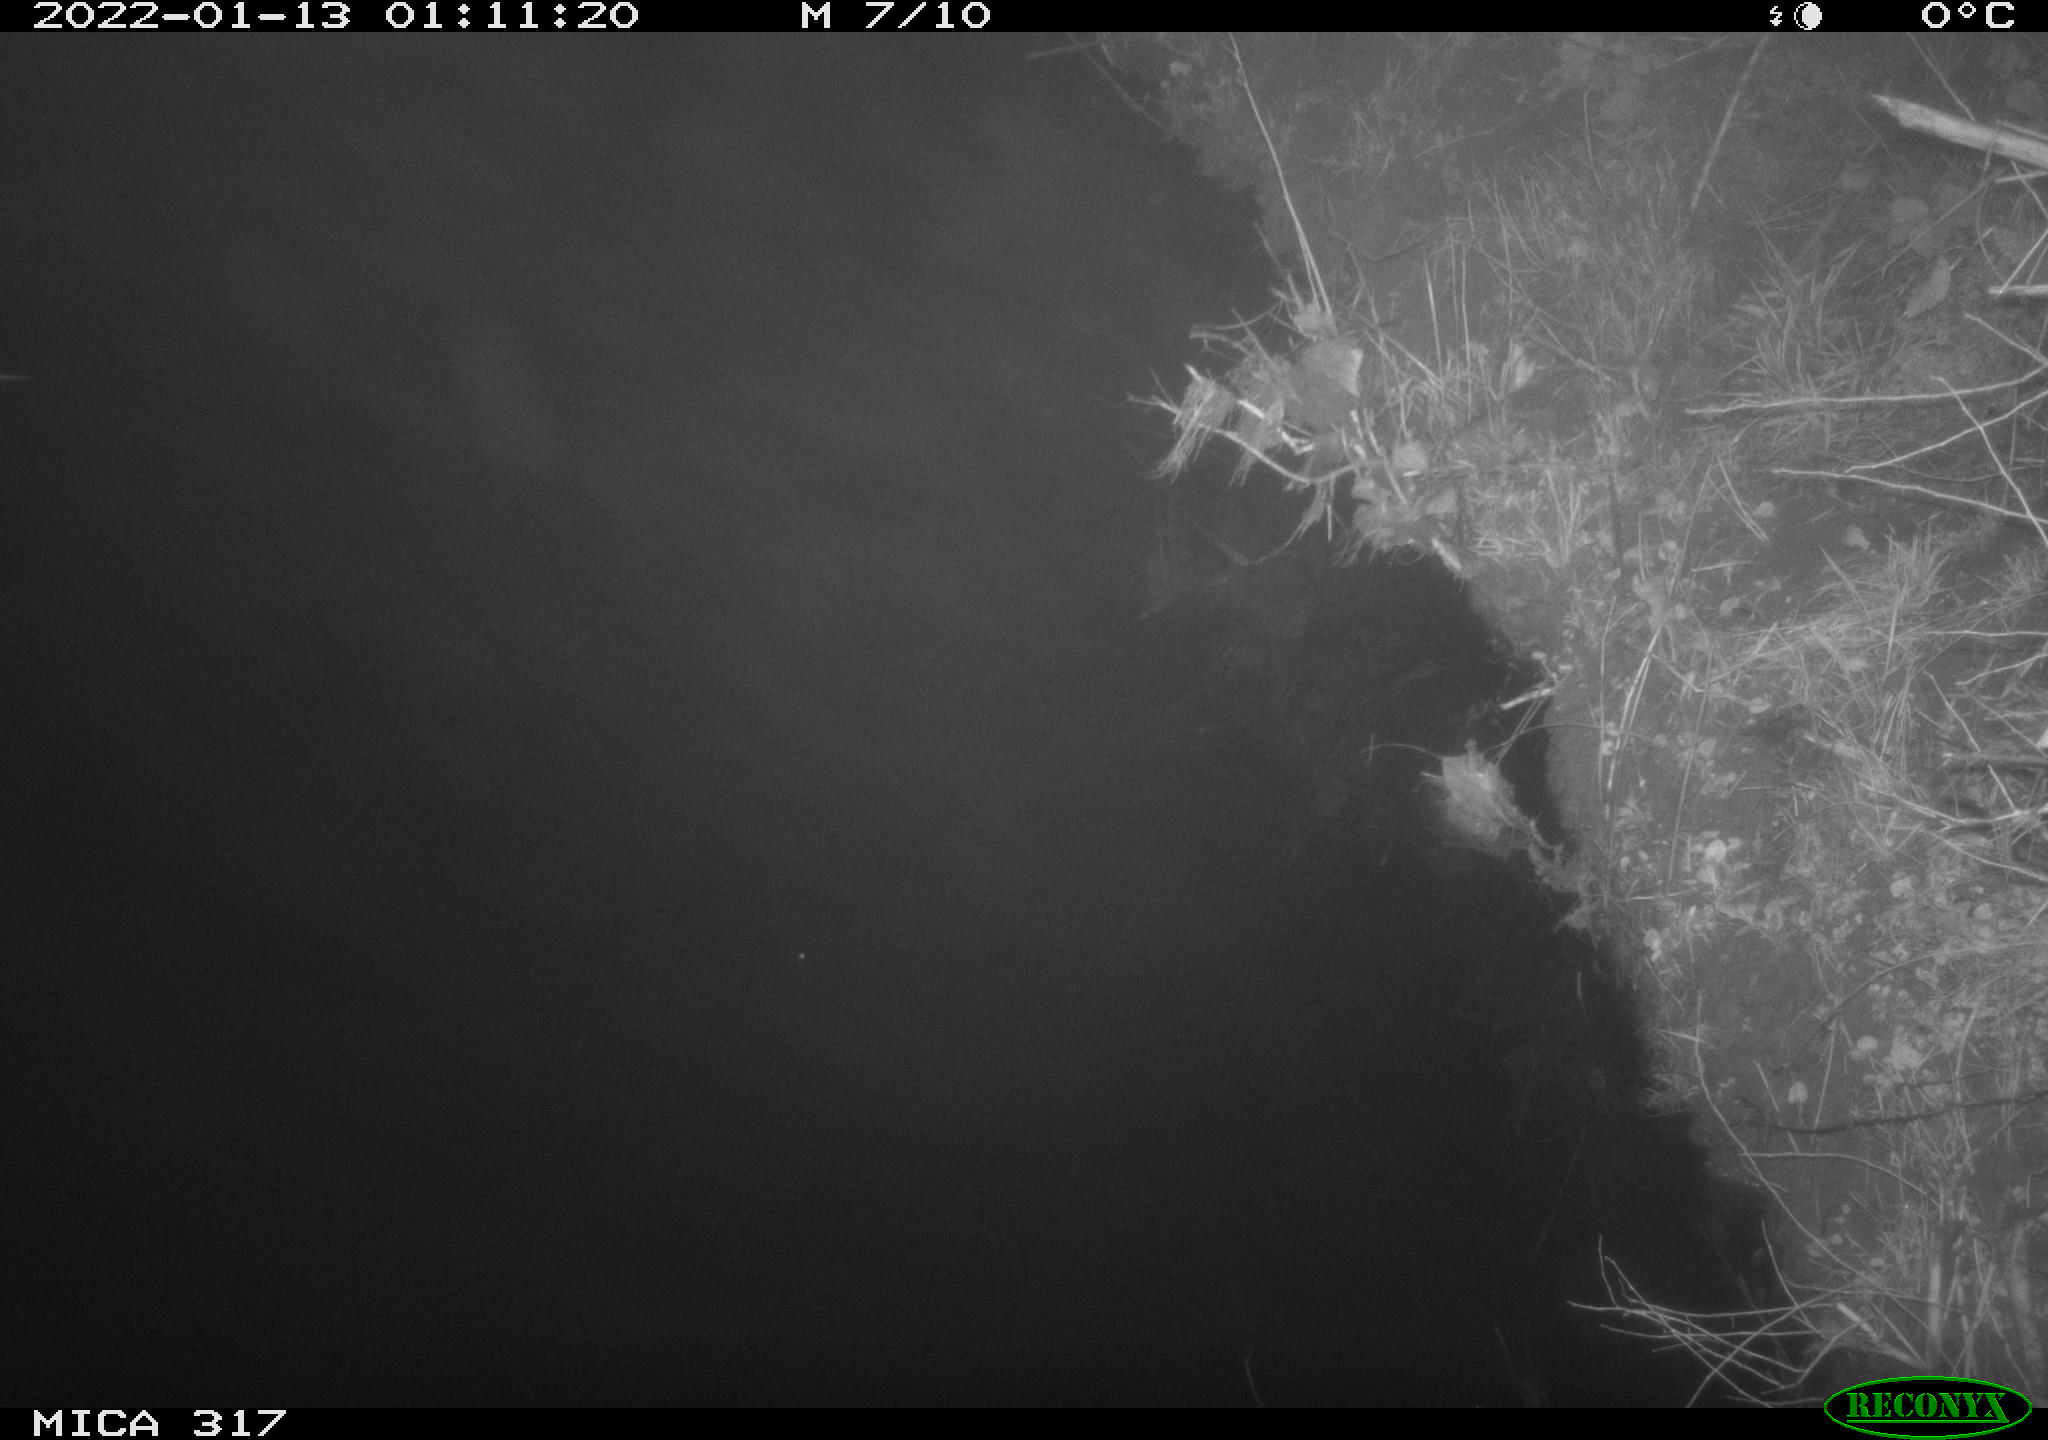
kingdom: Animalia
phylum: Chordata
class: Mammalia
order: Rodentia
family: Muridae
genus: Rattus
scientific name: Rattus norvegicus
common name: Brown rat
